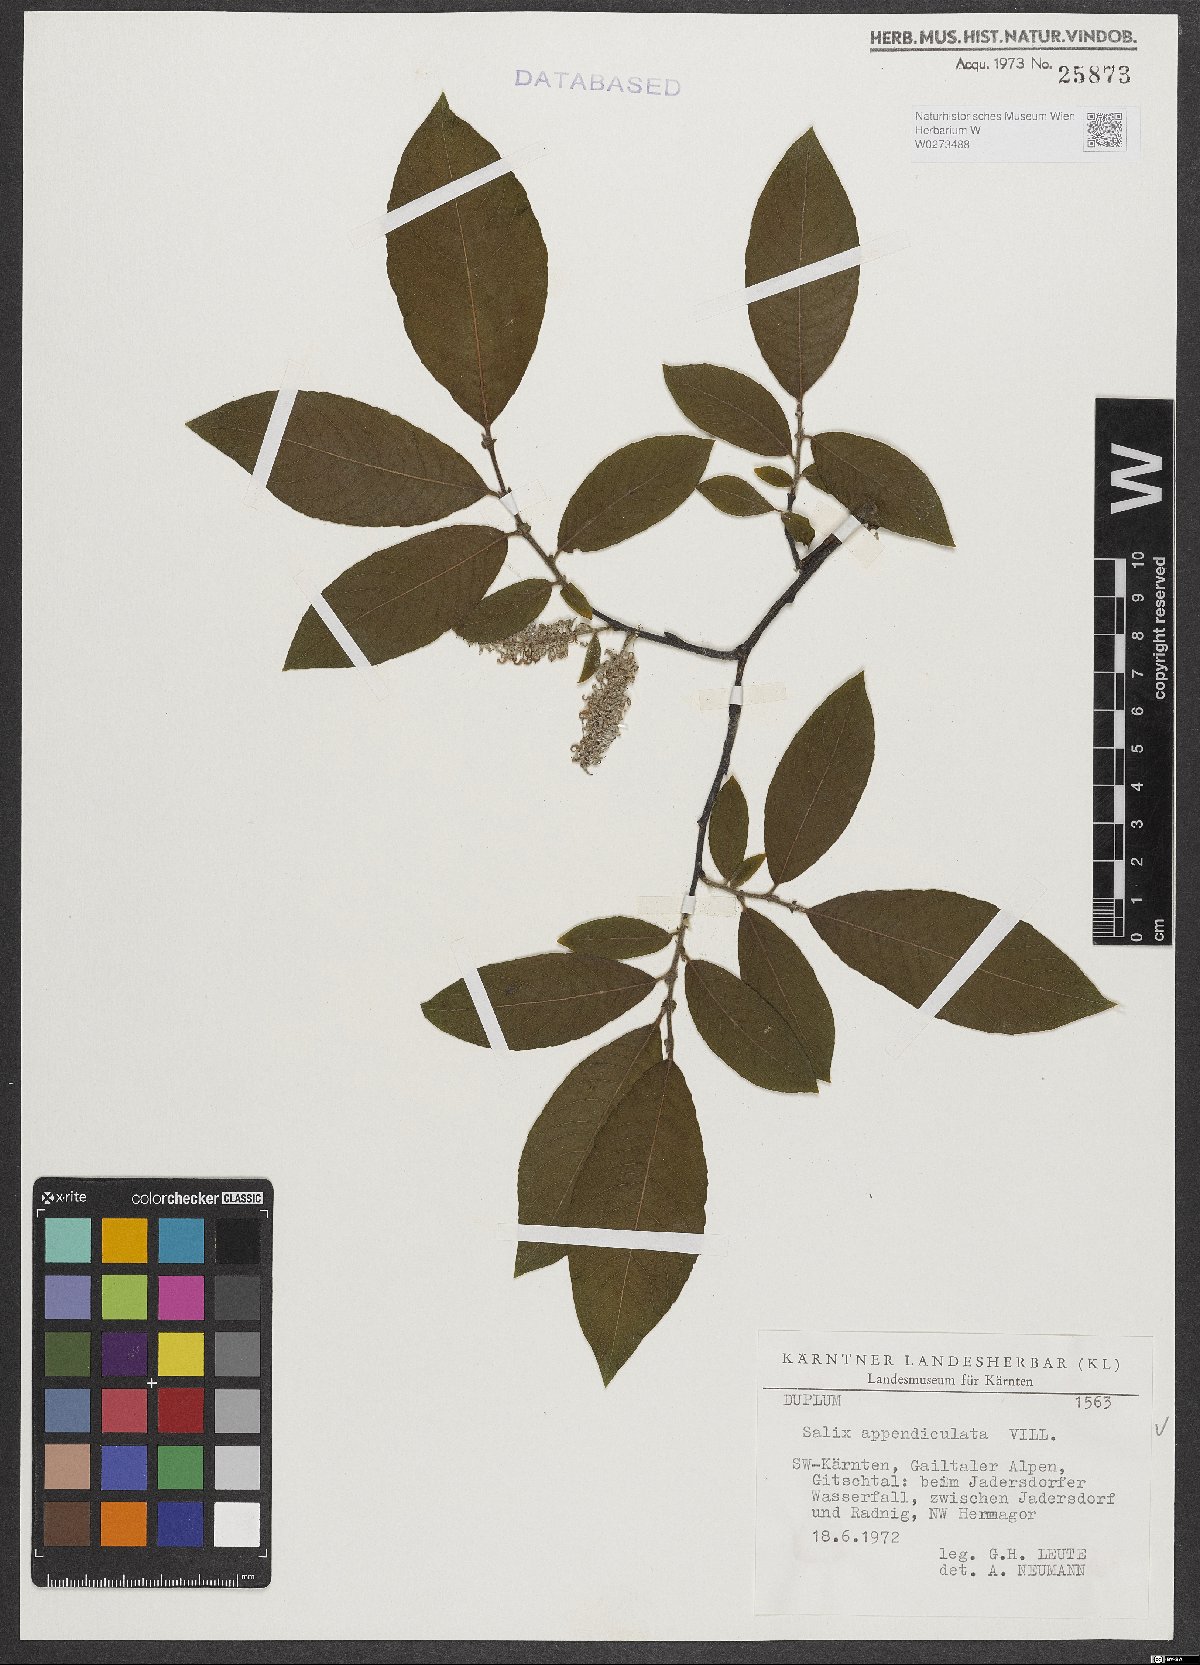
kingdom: Plantae
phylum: Tracheophyta
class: Magnoliopsida
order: Malpighiales
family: Salicaceae
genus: Salix
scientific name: Salix appendiculata
